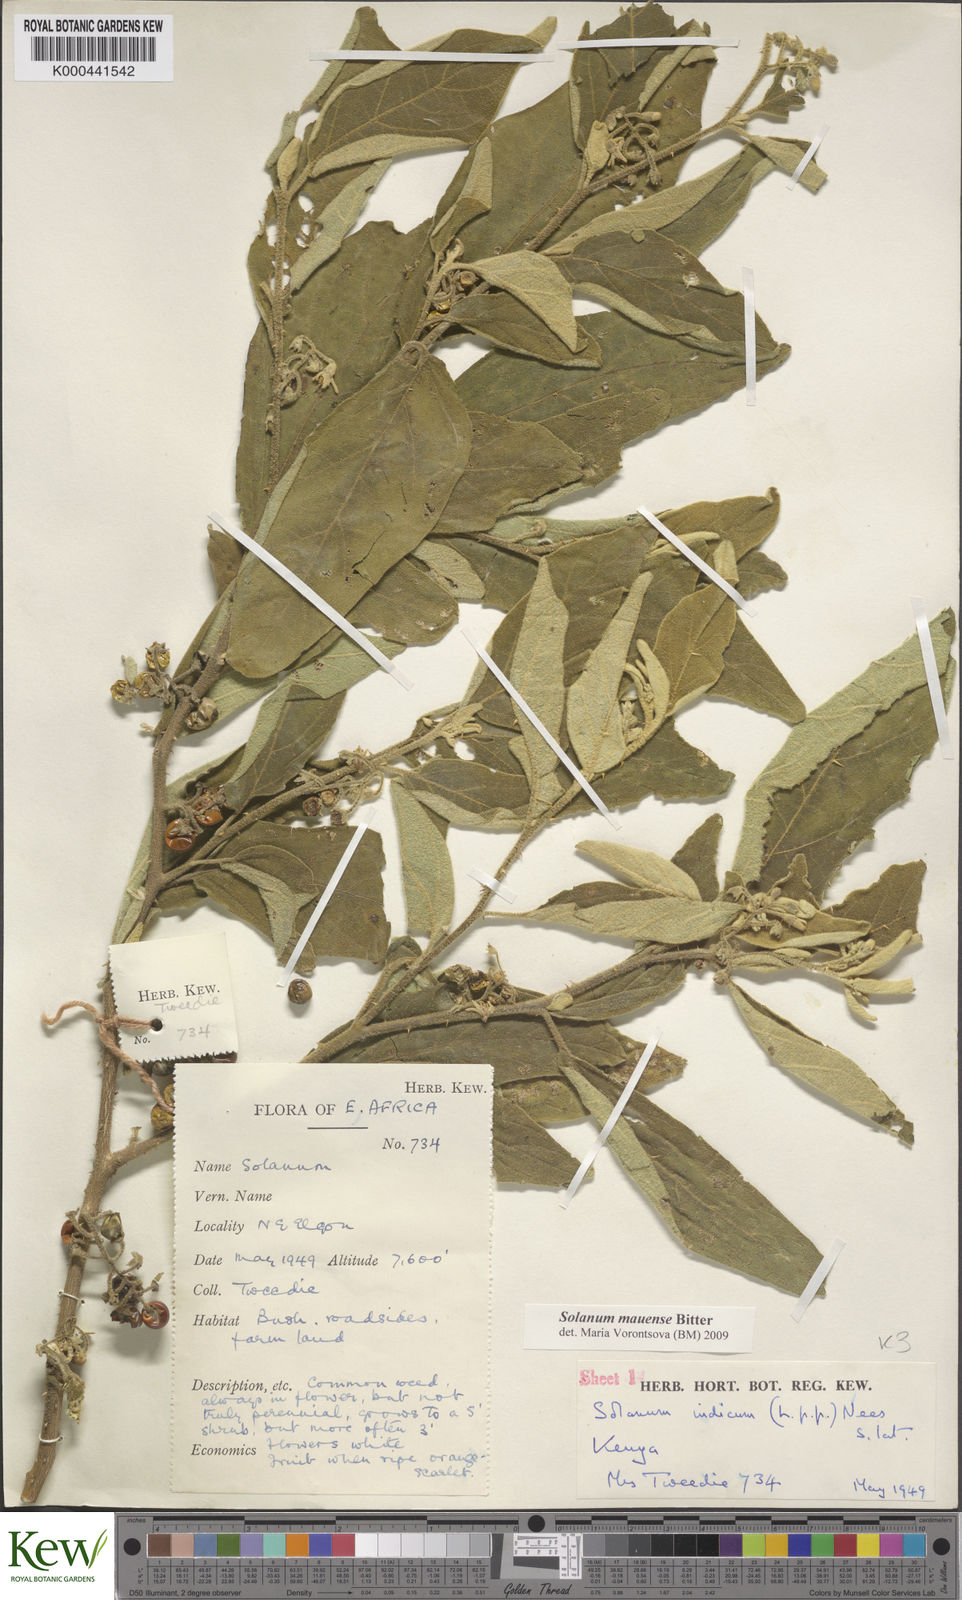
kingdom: Plantae
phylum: Tracheophyta
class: Magnoliopsida
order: Solanales
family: Solanaceae
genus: Solanum
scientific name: Solanum mauense
